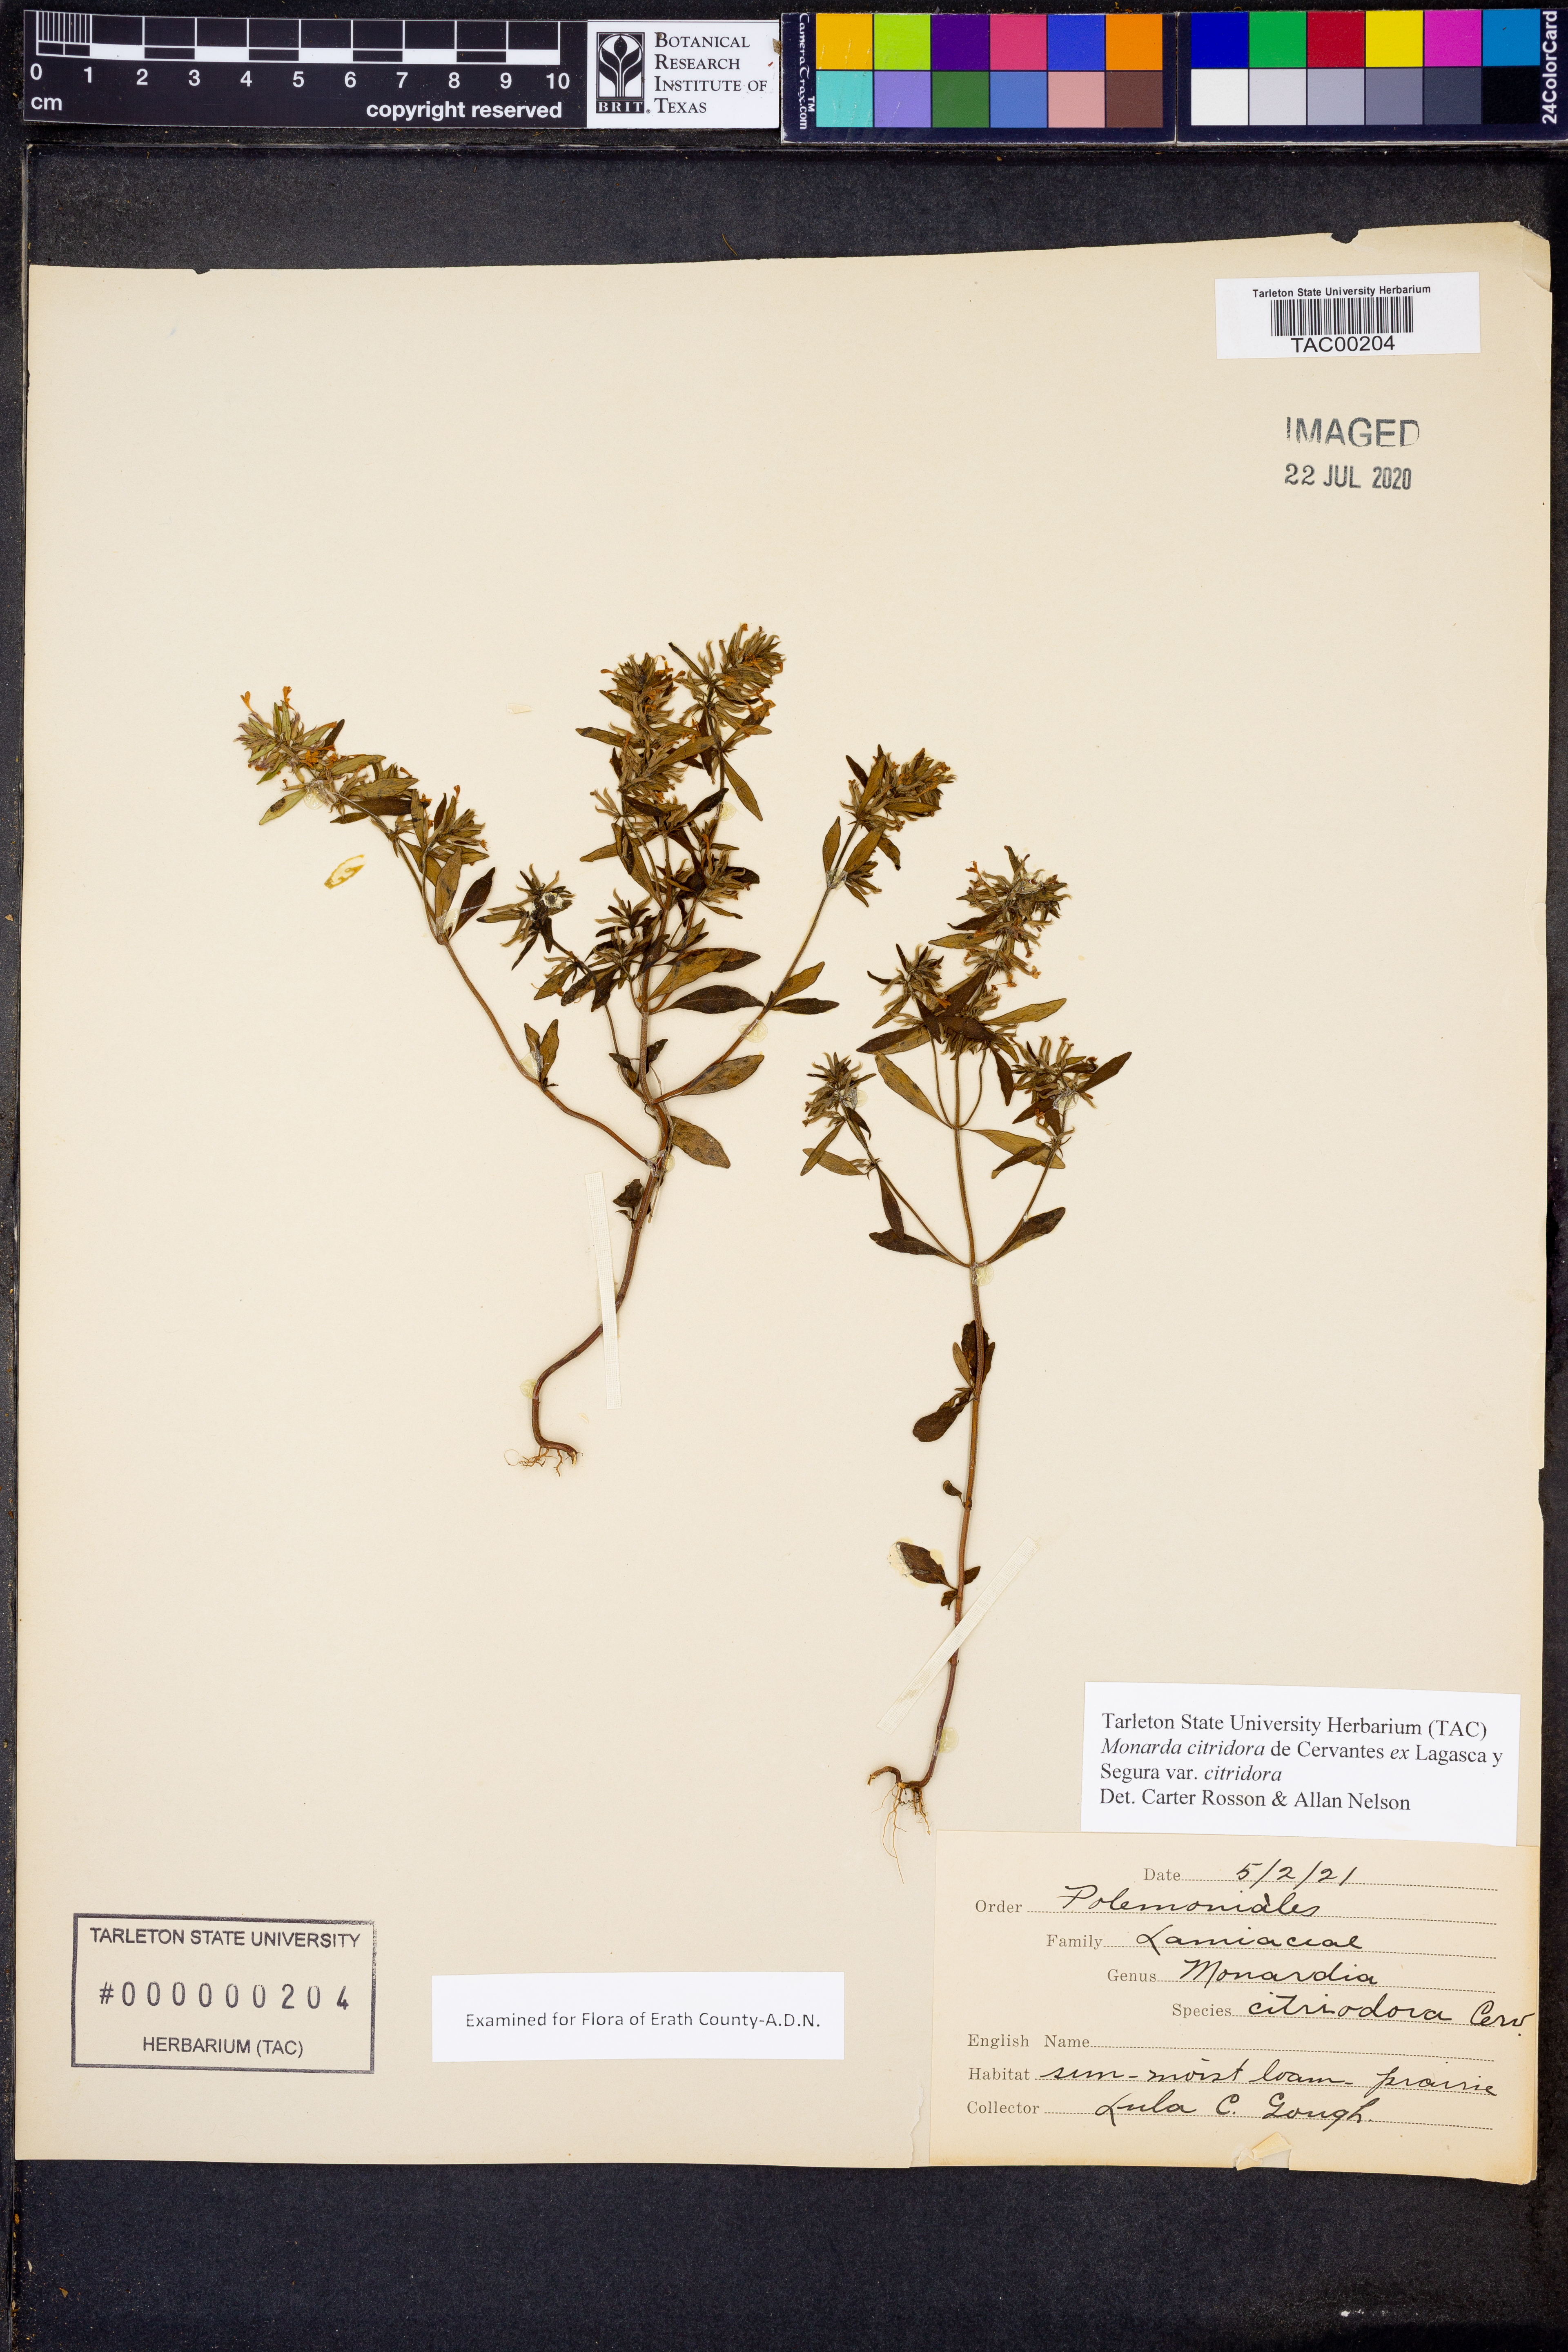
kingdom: Plantae
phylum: Tracheophyta
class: Magnoliopsida
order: Lamiales
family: Lamiaceae
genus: Monarda
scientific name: Monarda citriodora
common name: Lemon beebalm
